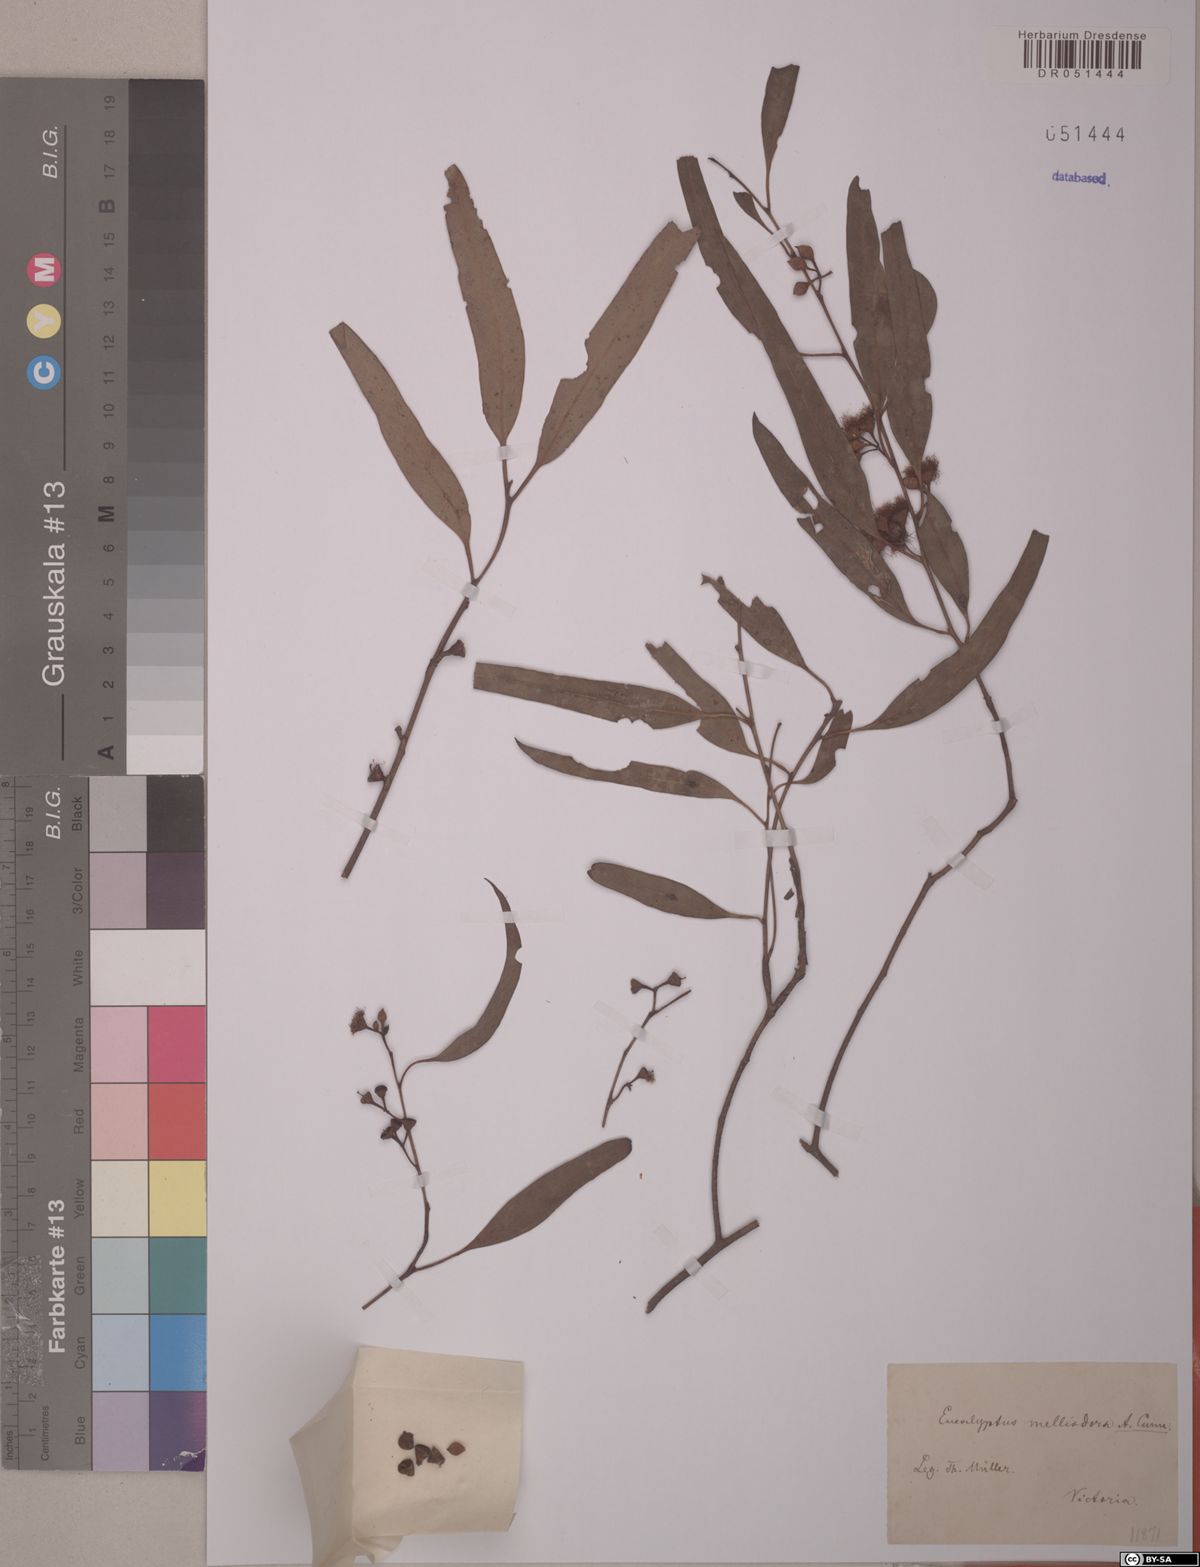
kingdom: Plantae
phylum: Tracheophyta
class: Magnoliopsida
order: Myrtales
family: Myrtaceae
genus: Eucalyptus
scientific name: Eucalyptus melliodora
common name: Yellow ironbox
